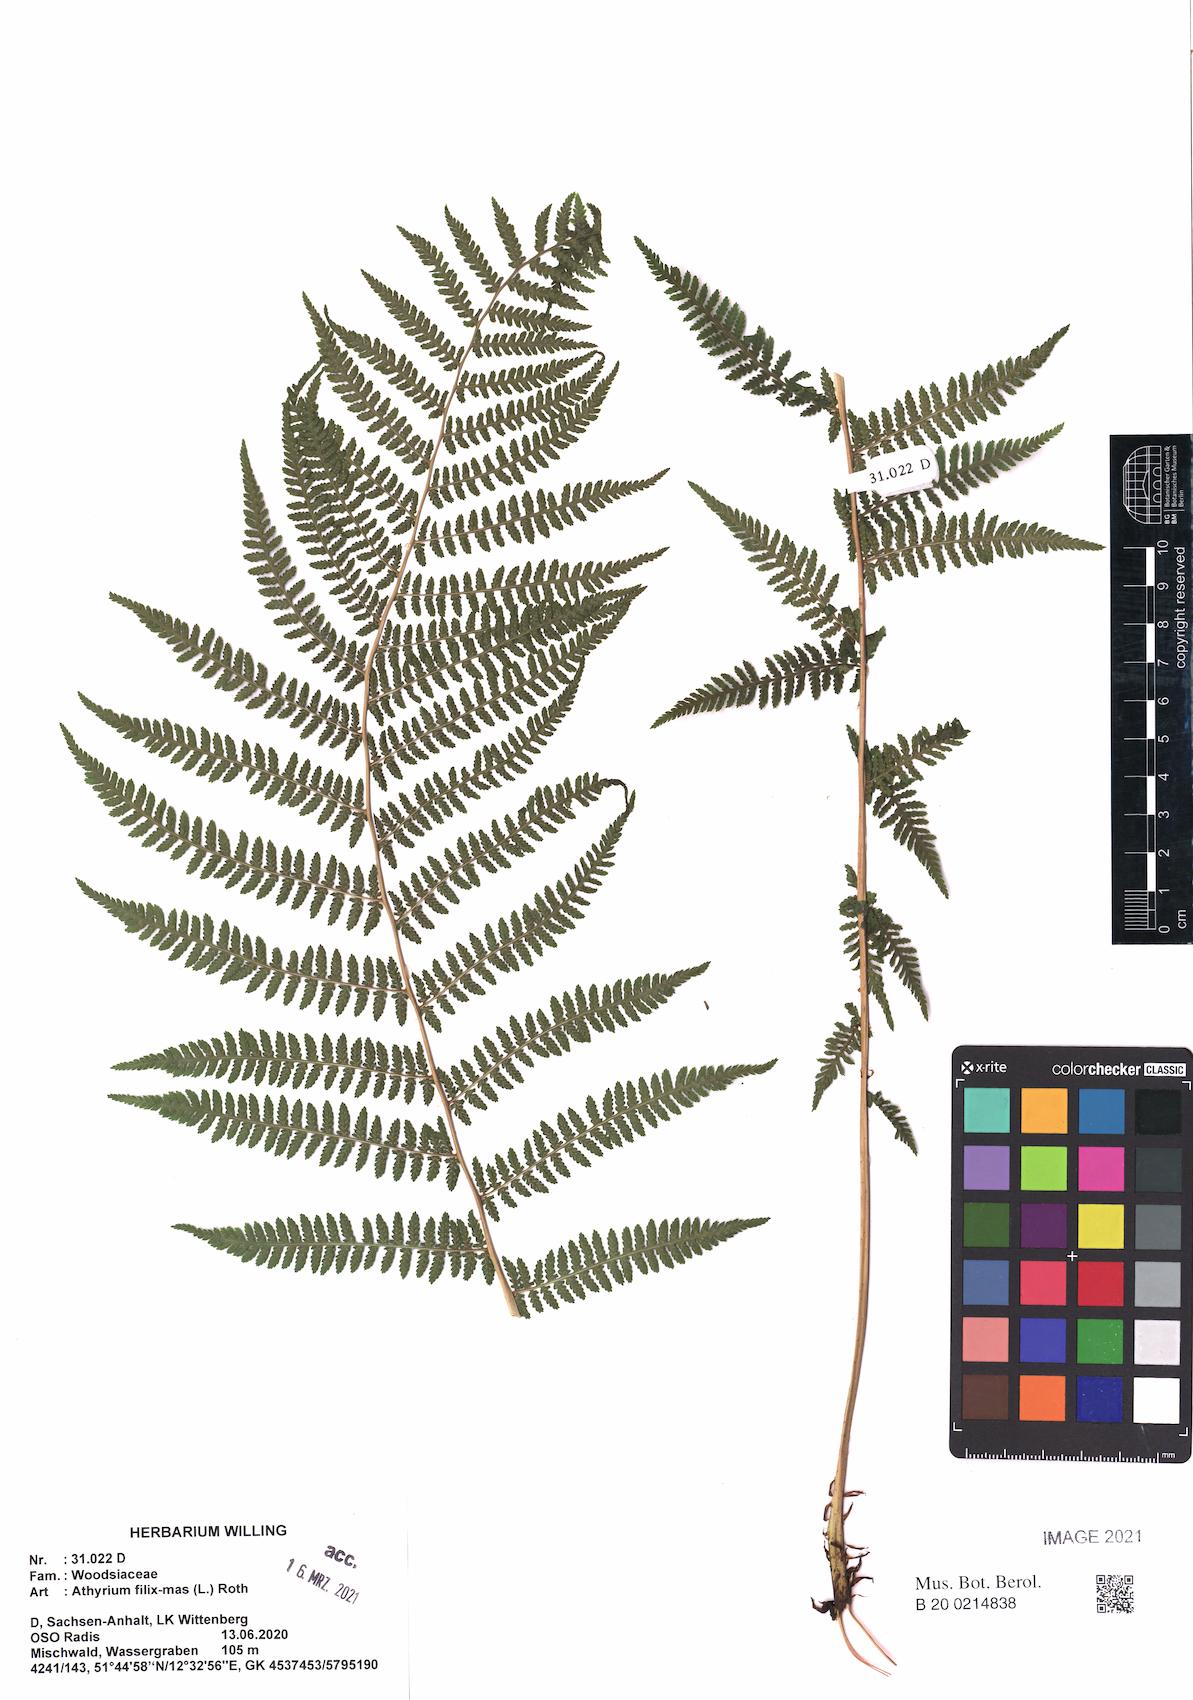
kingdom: Plantae
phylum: Tracheophyta
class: Polypodiopsida
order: Polypodiales
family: Athyriaceae
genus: Athyrium
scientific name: Athyrium filix-femina
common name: Lady fern
